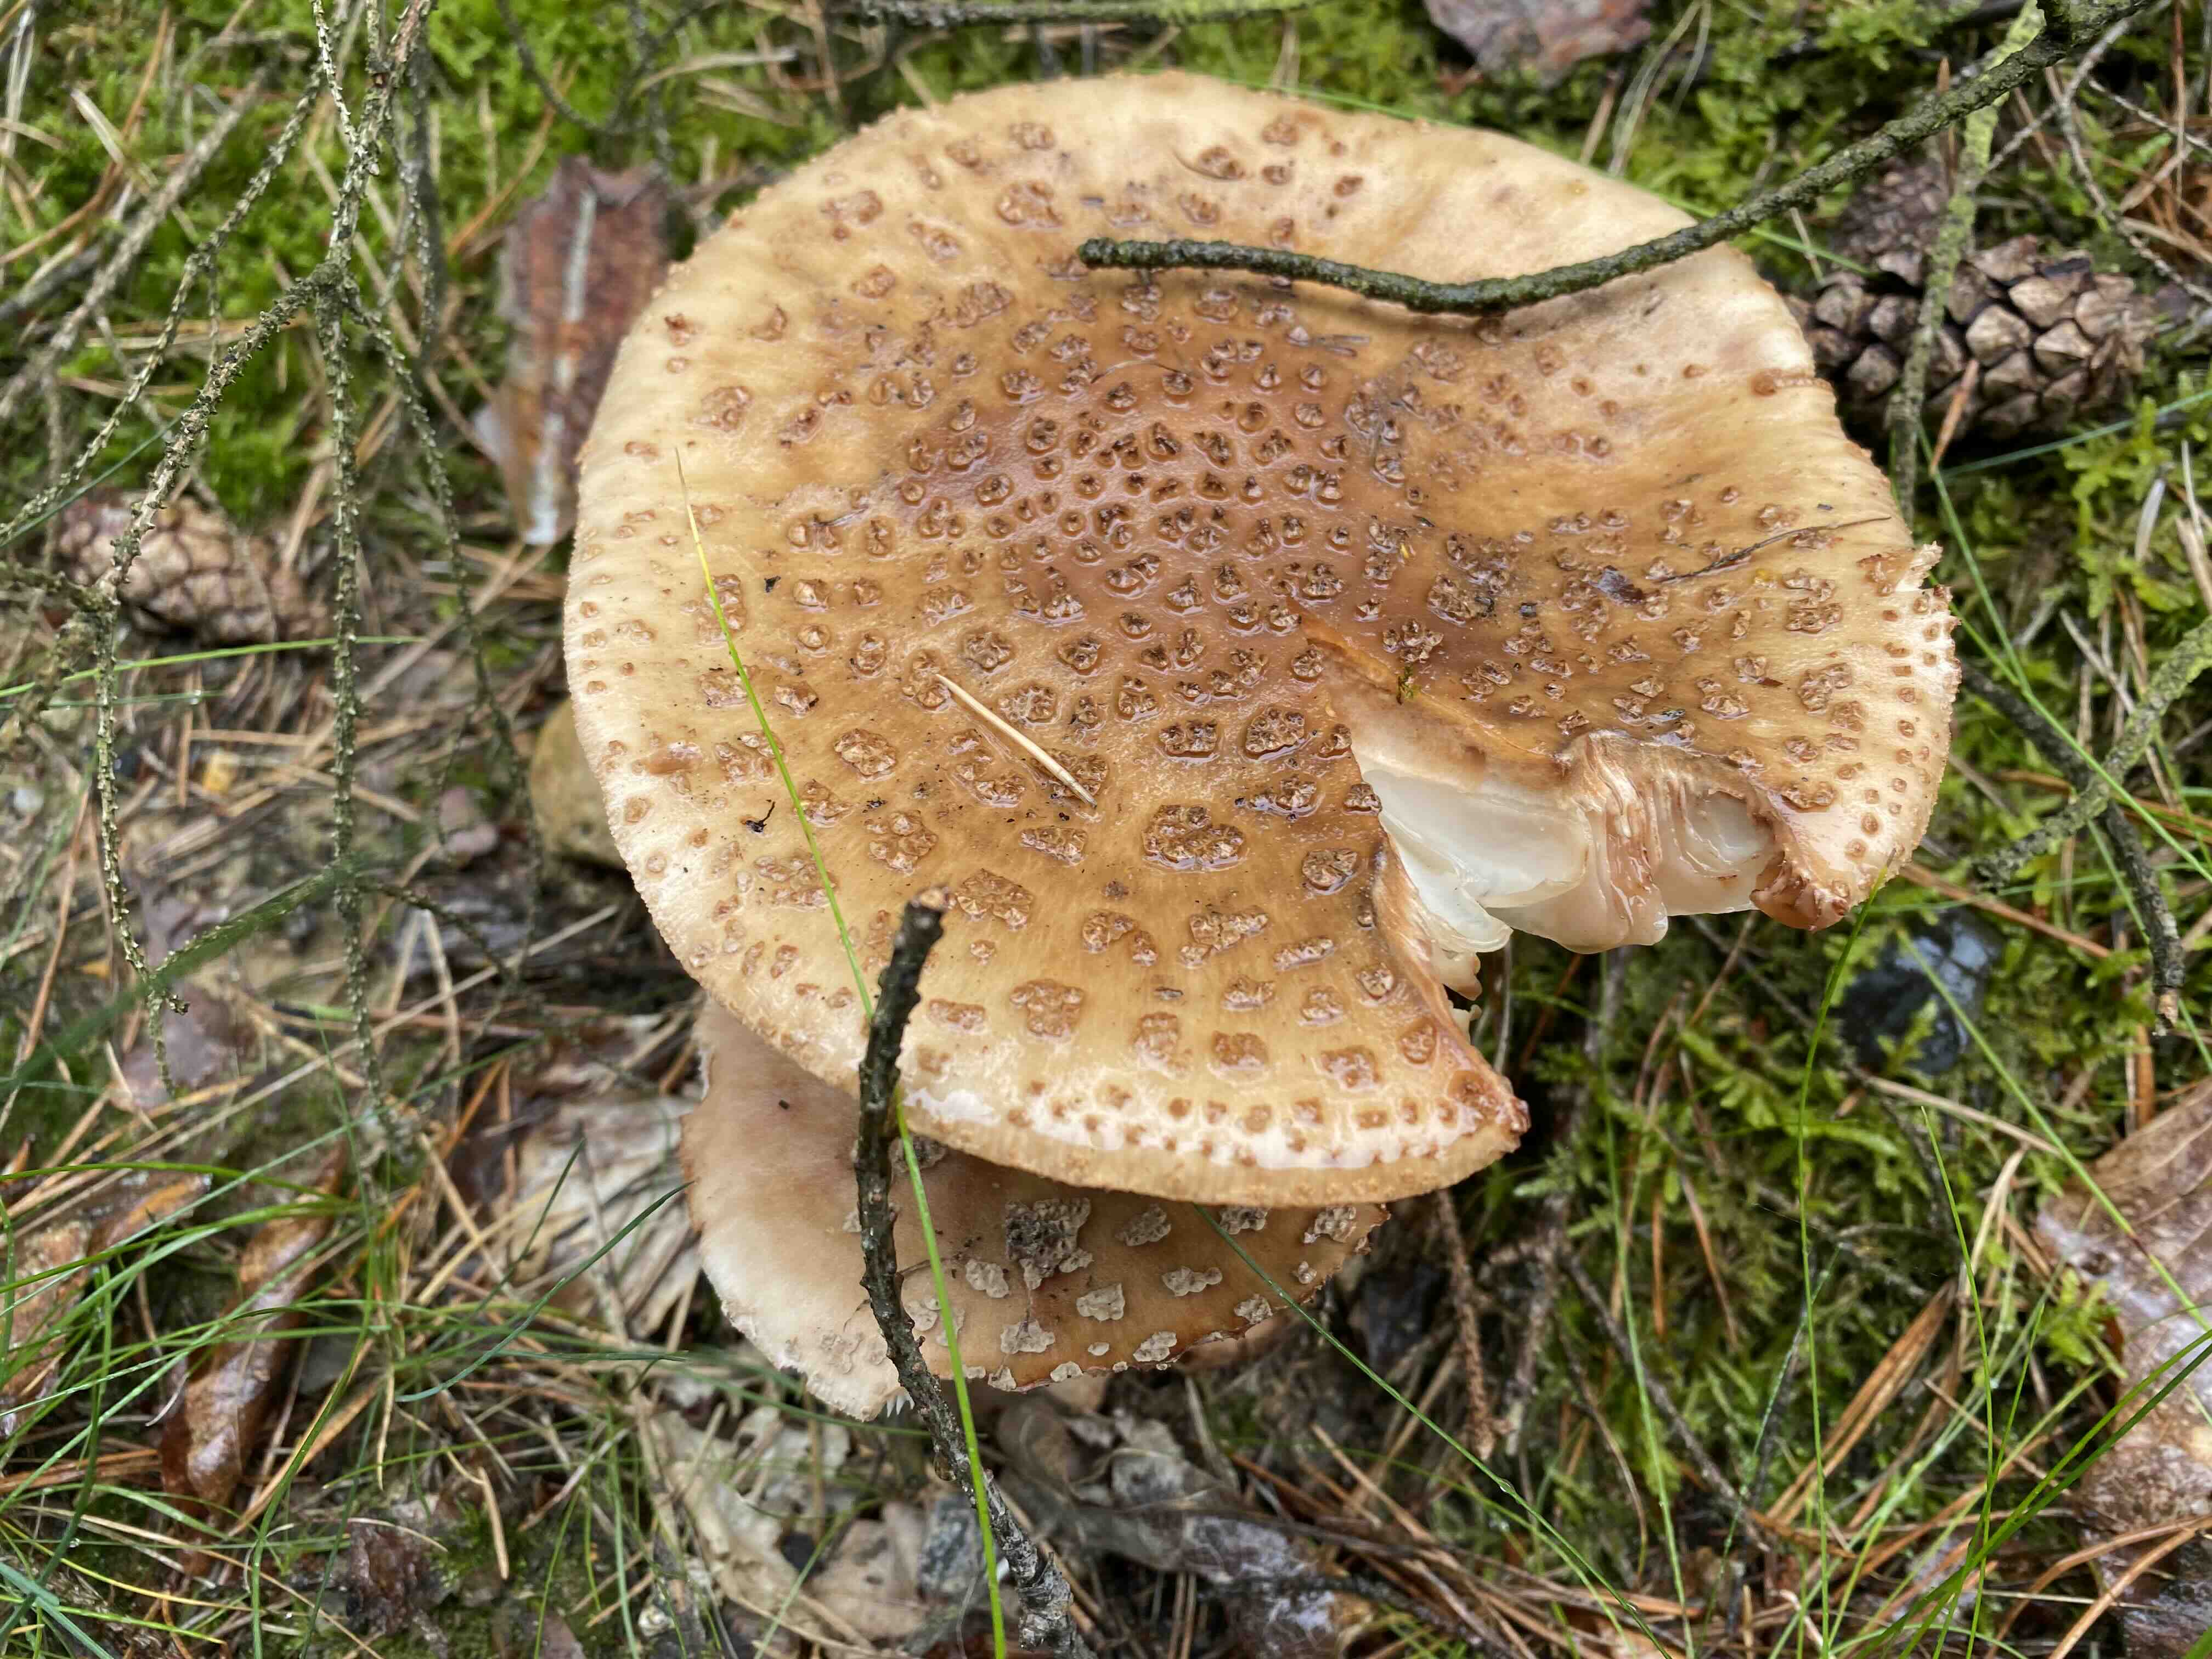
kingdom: Fungi
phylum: Basidiomycota
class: Agaricomycetes
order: Agaricales
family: Amanitaceae
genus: Amanita
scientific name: Amanita rubescens
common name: rødmende fluesvamp
